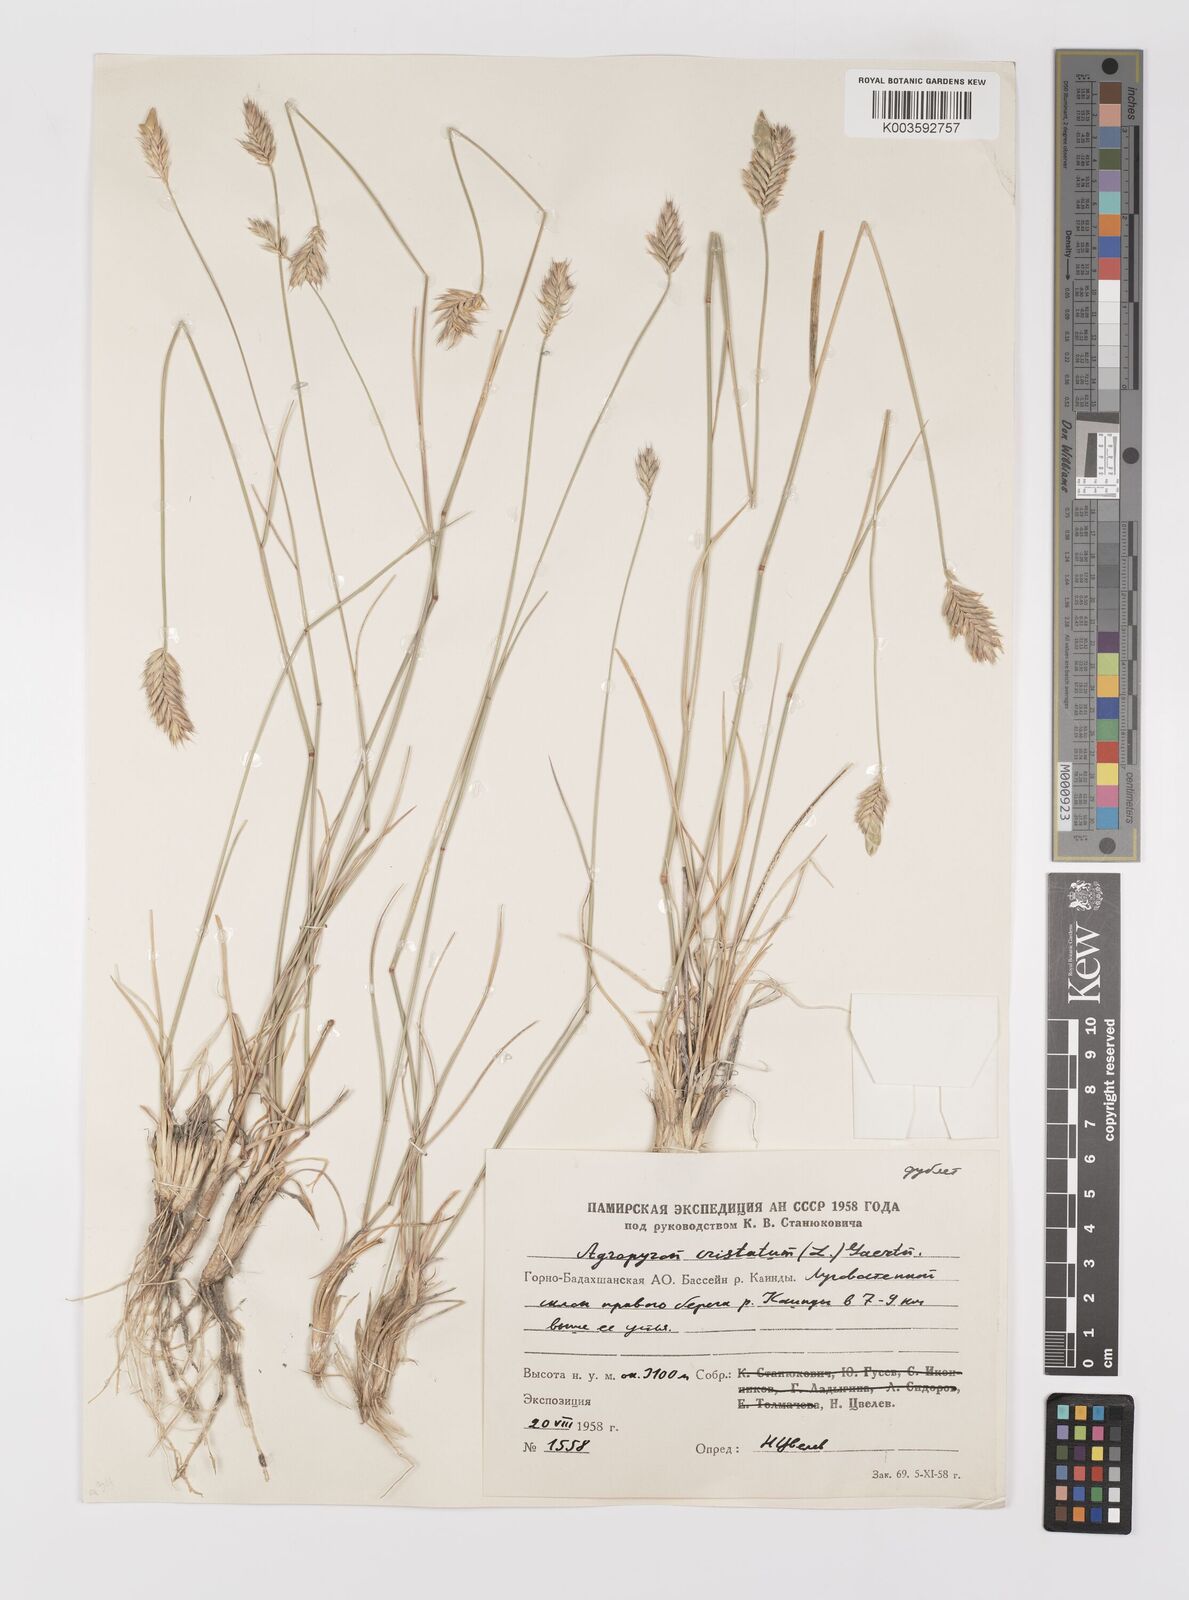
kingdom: Plantae
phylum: Tracheophyta
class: Liliopsida
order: Poales
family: Poaceae
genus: Agropyron
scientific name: Agropyron cristatum
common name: Crested wheatgrass
